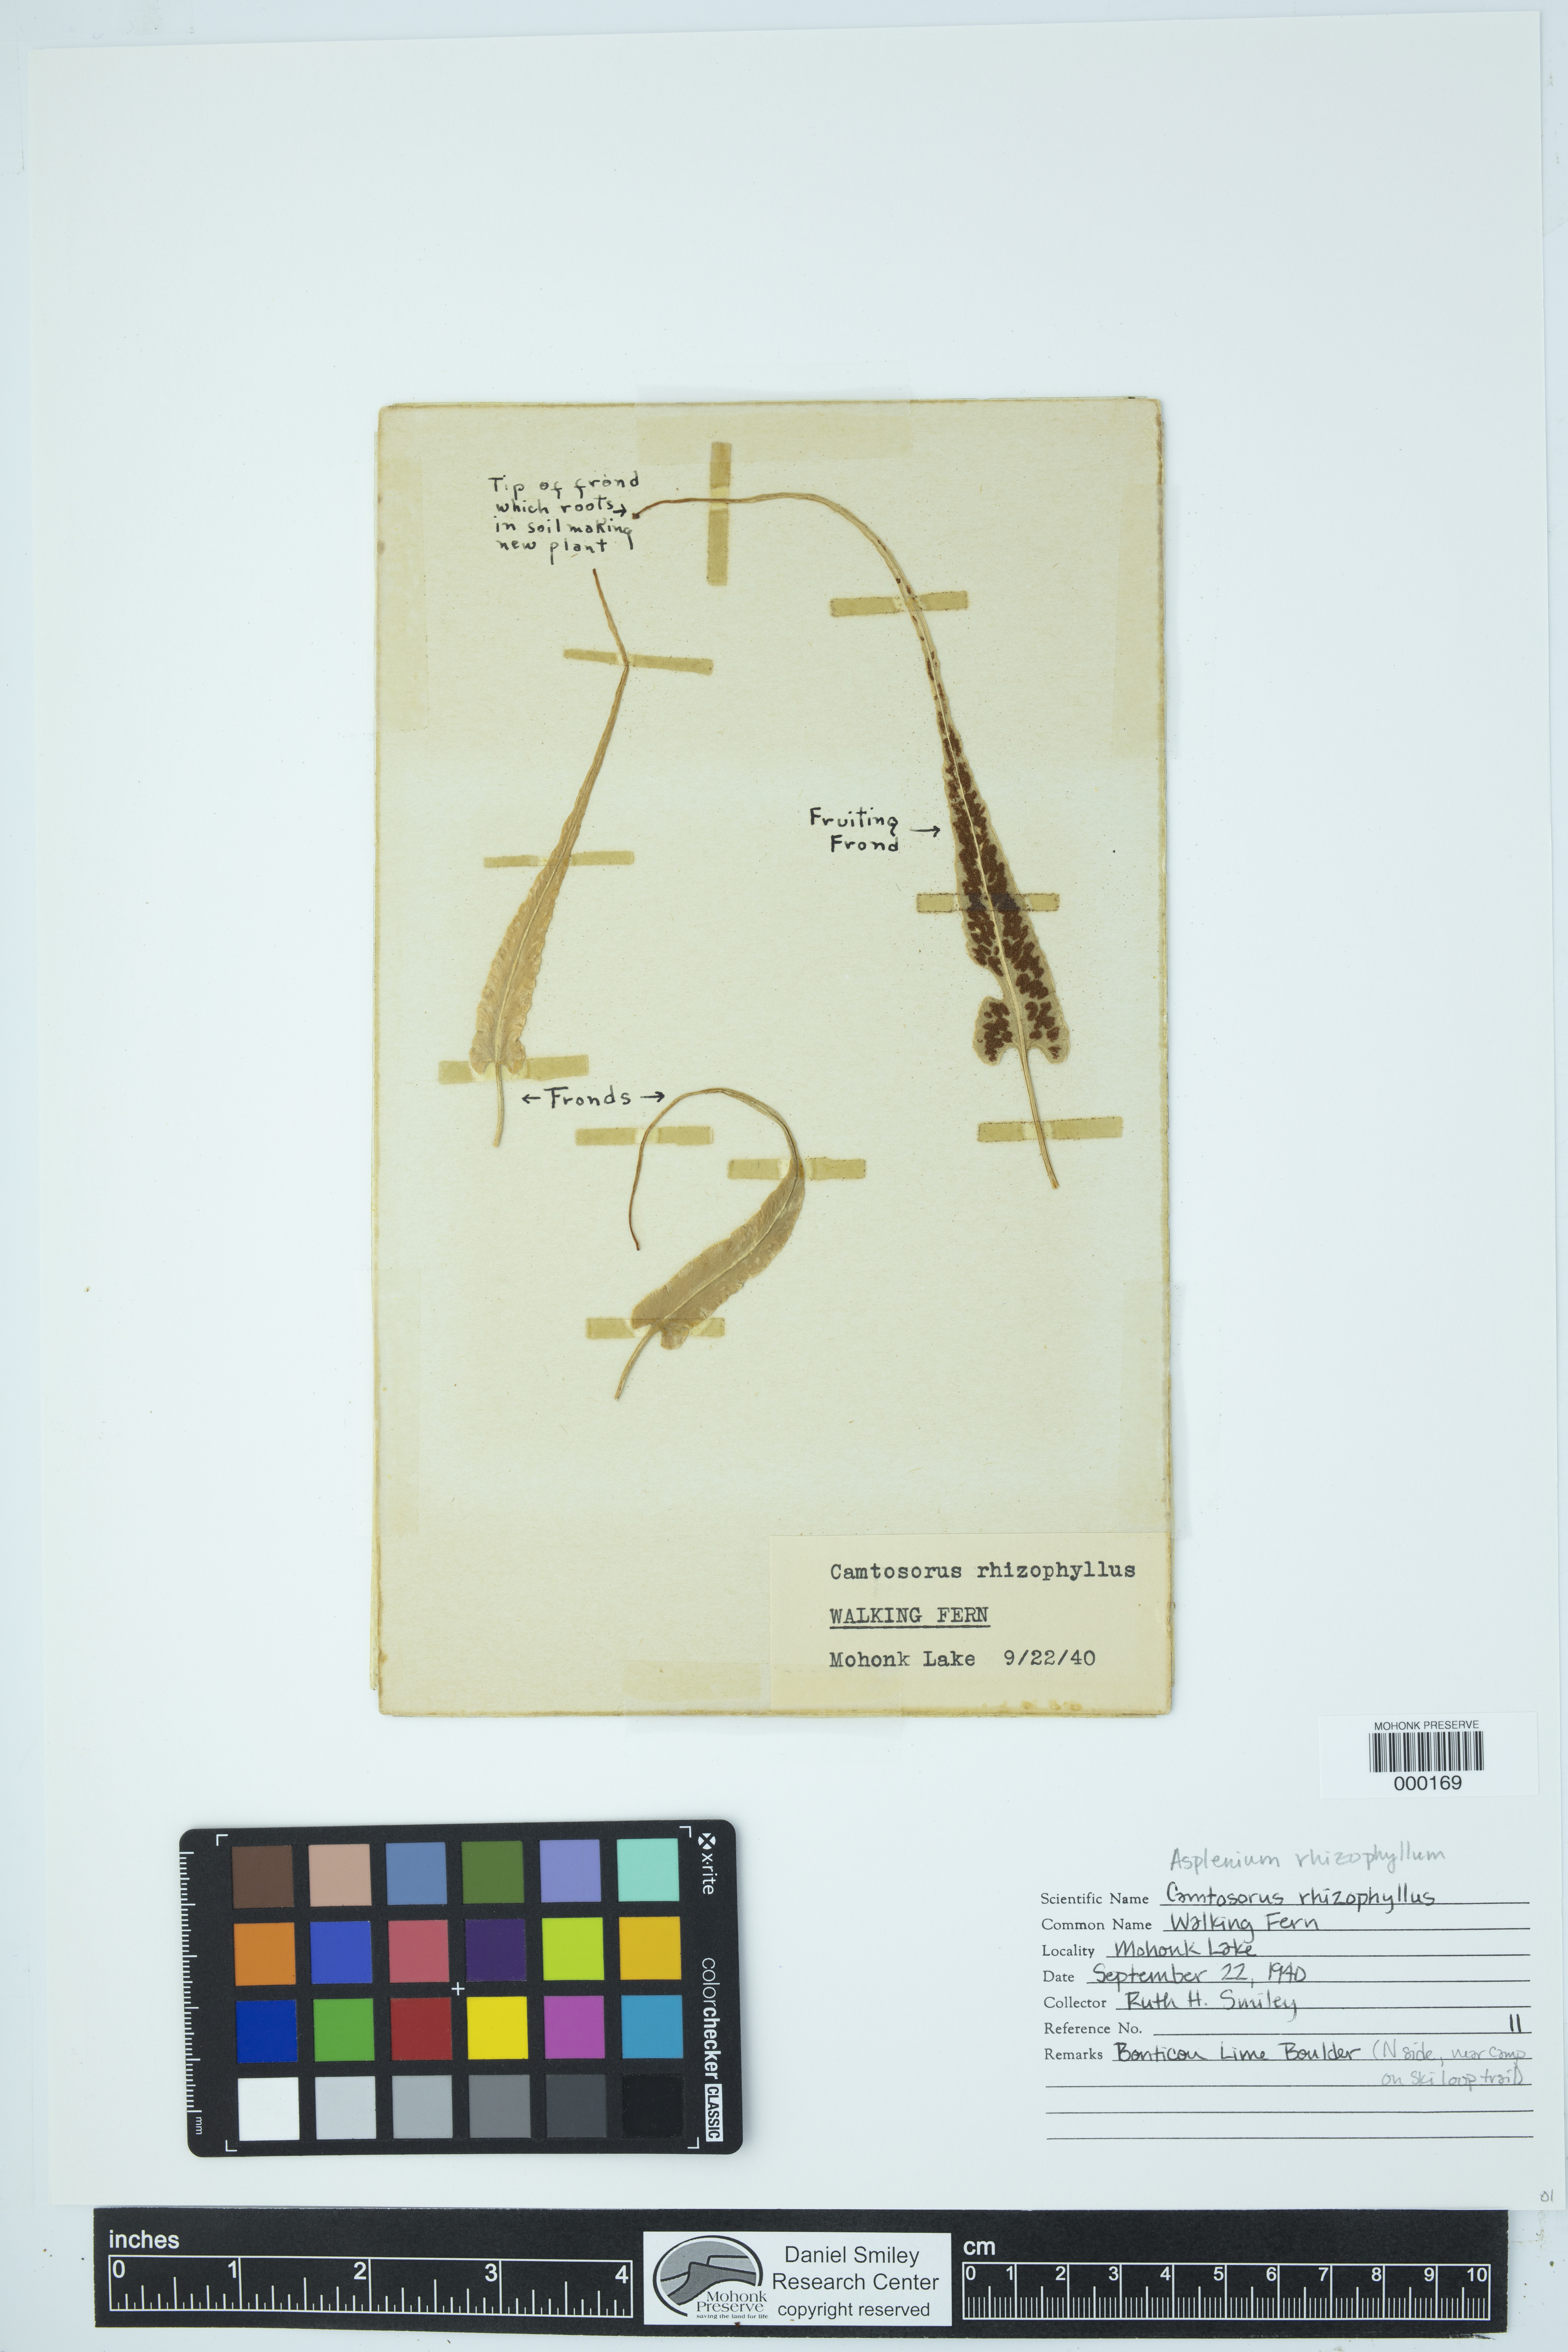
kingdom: Plantae
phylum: Tracheophyta
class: Polypodiopsida
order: Polypodiales
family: Aspleniaceae
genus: Asplenium
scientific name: Asplenium radicans
